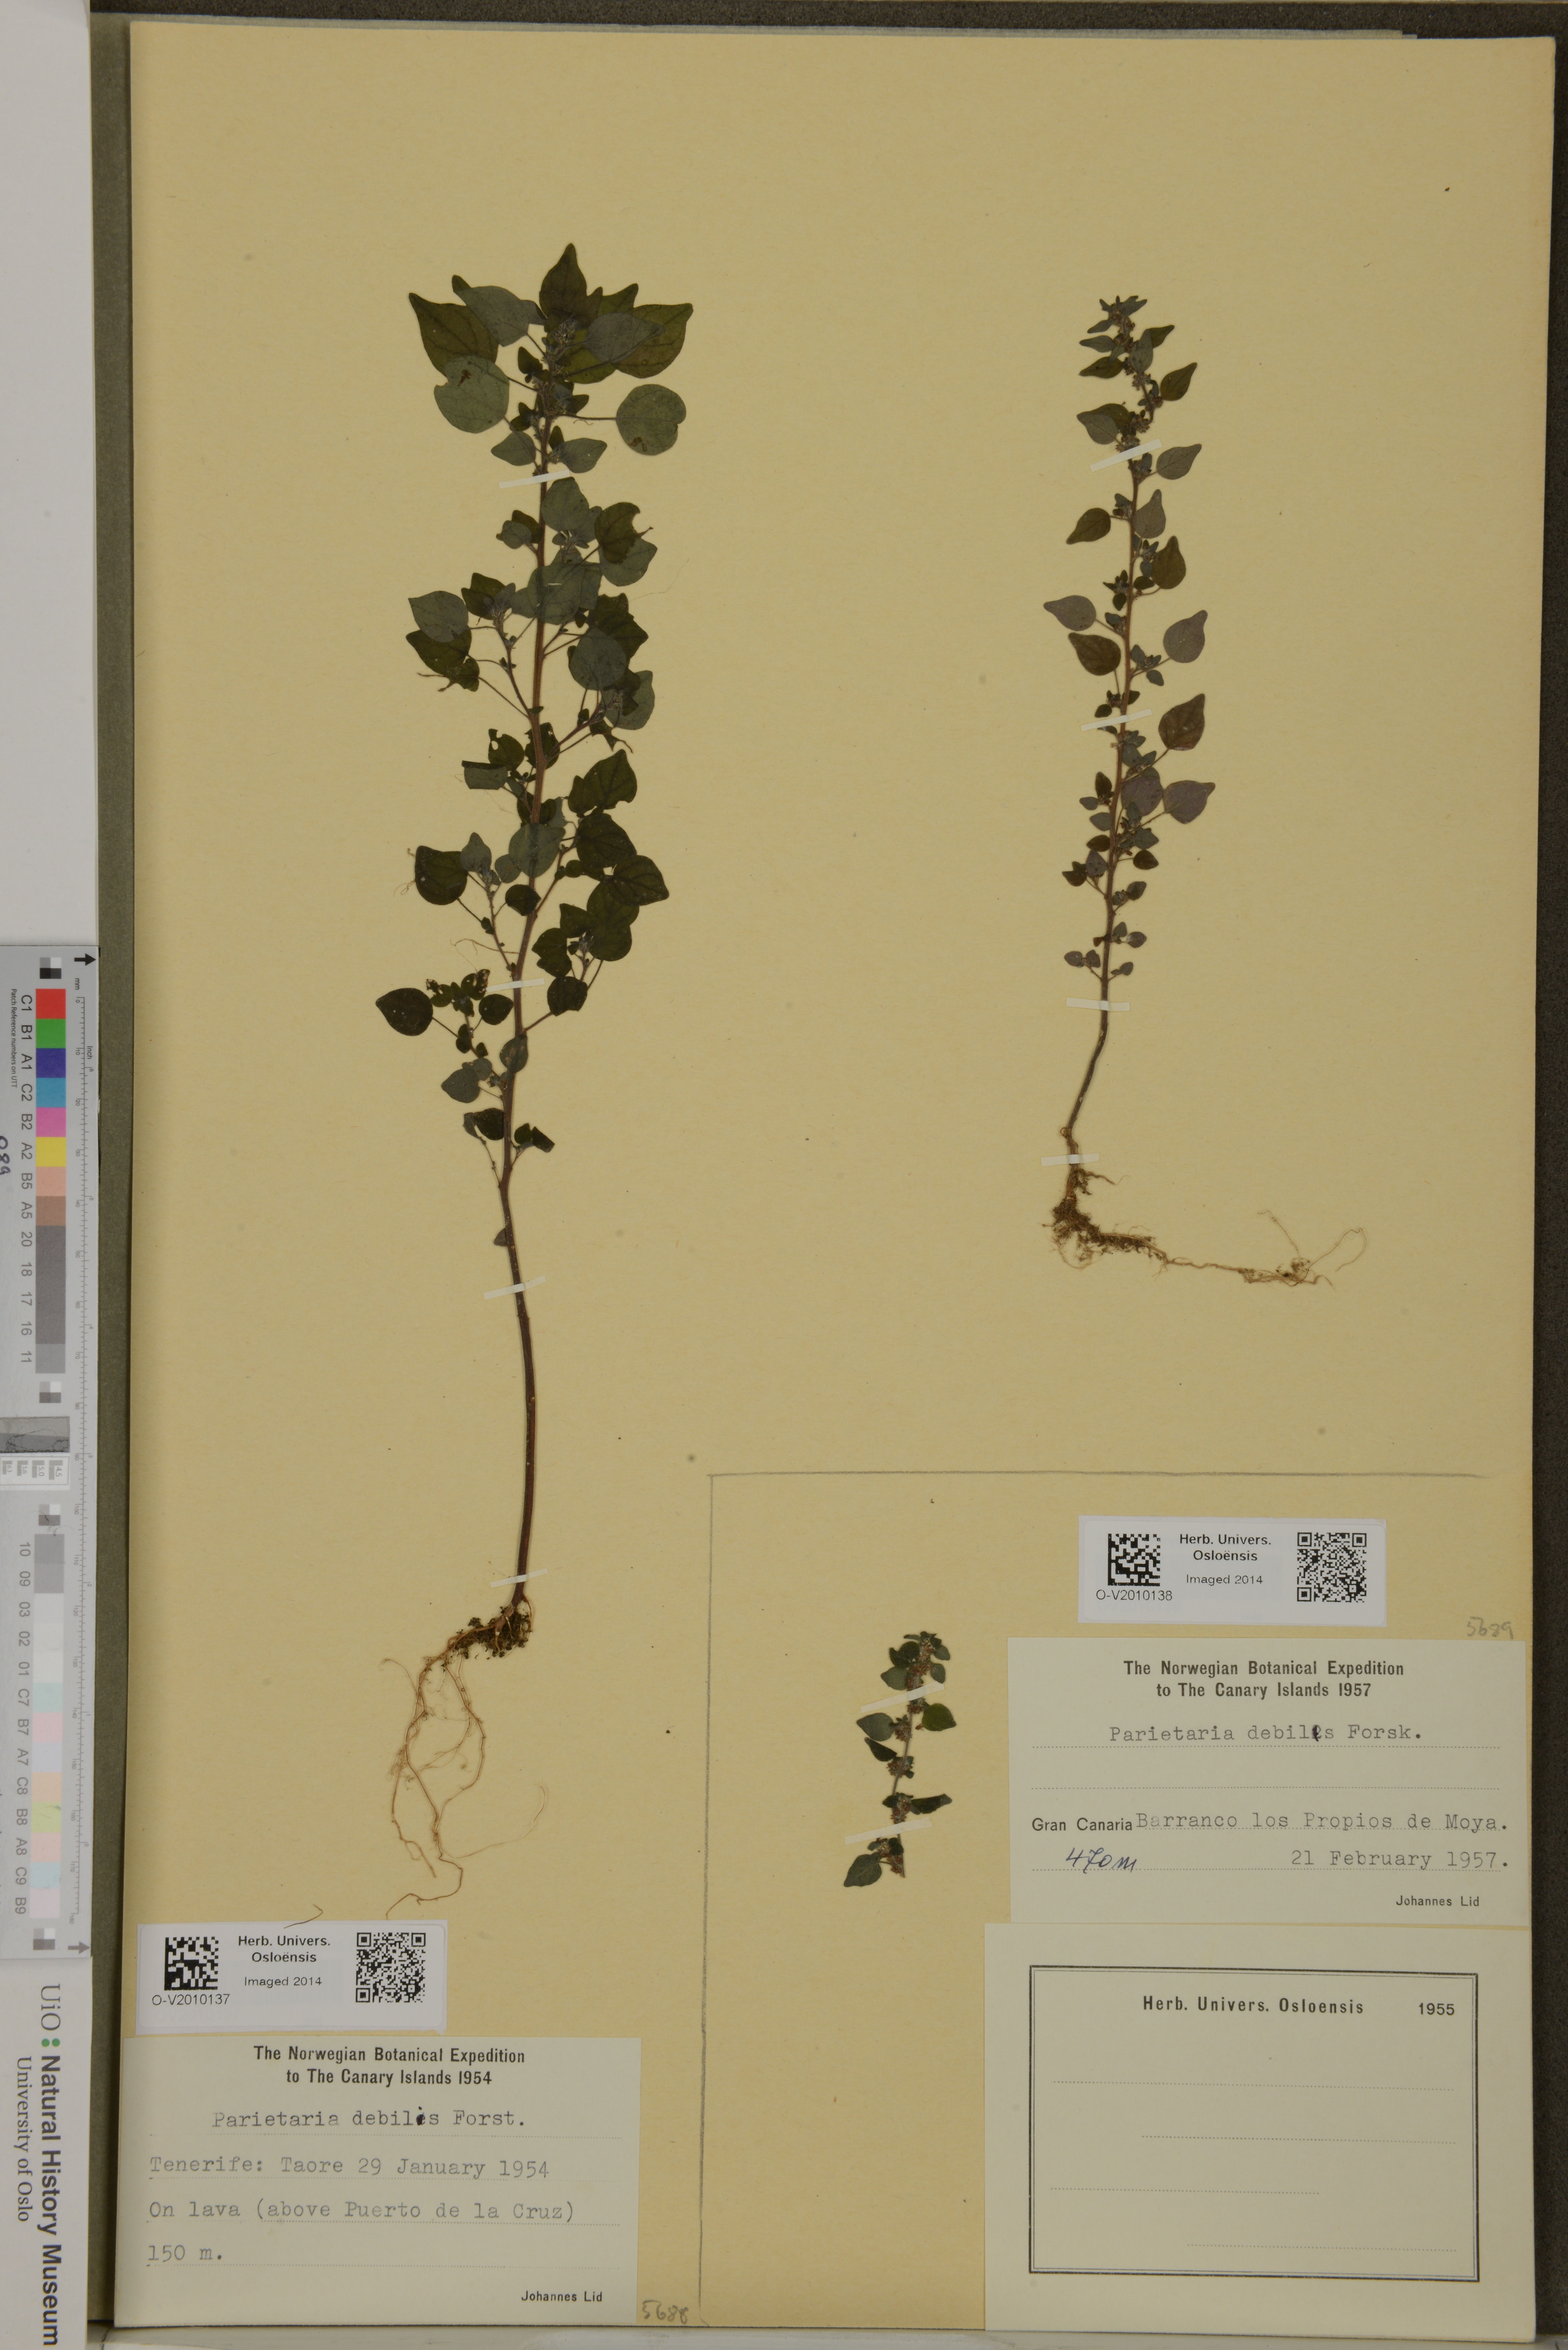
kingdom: Plantae
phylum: Tracheophyta
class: Magnoliopsida
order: Rosales
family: Urticaceae
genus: Parietaria
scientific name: Parietaria debilis
